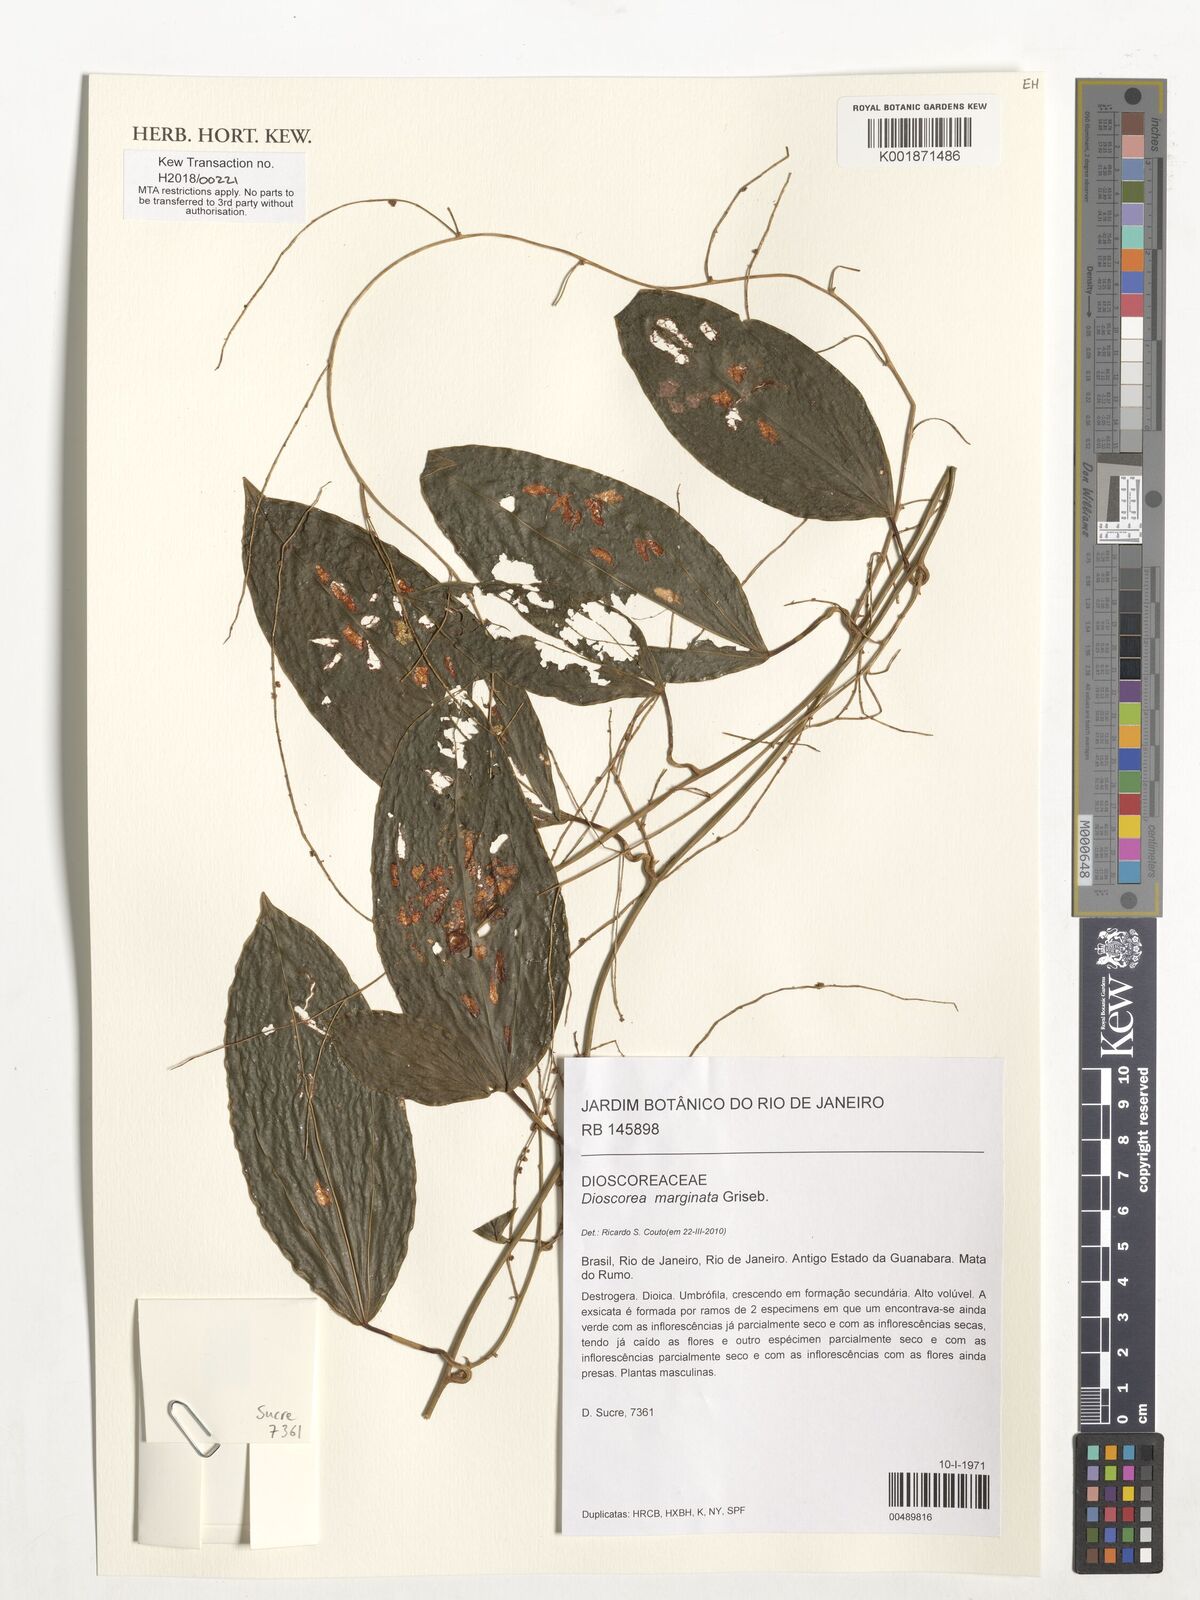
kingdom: Plantae
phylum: Tracheophyta
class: Liliopsida
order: Dioscoreales
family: Dioscoreaceae
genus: Dioscorea
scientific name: Dioscorea marginata
